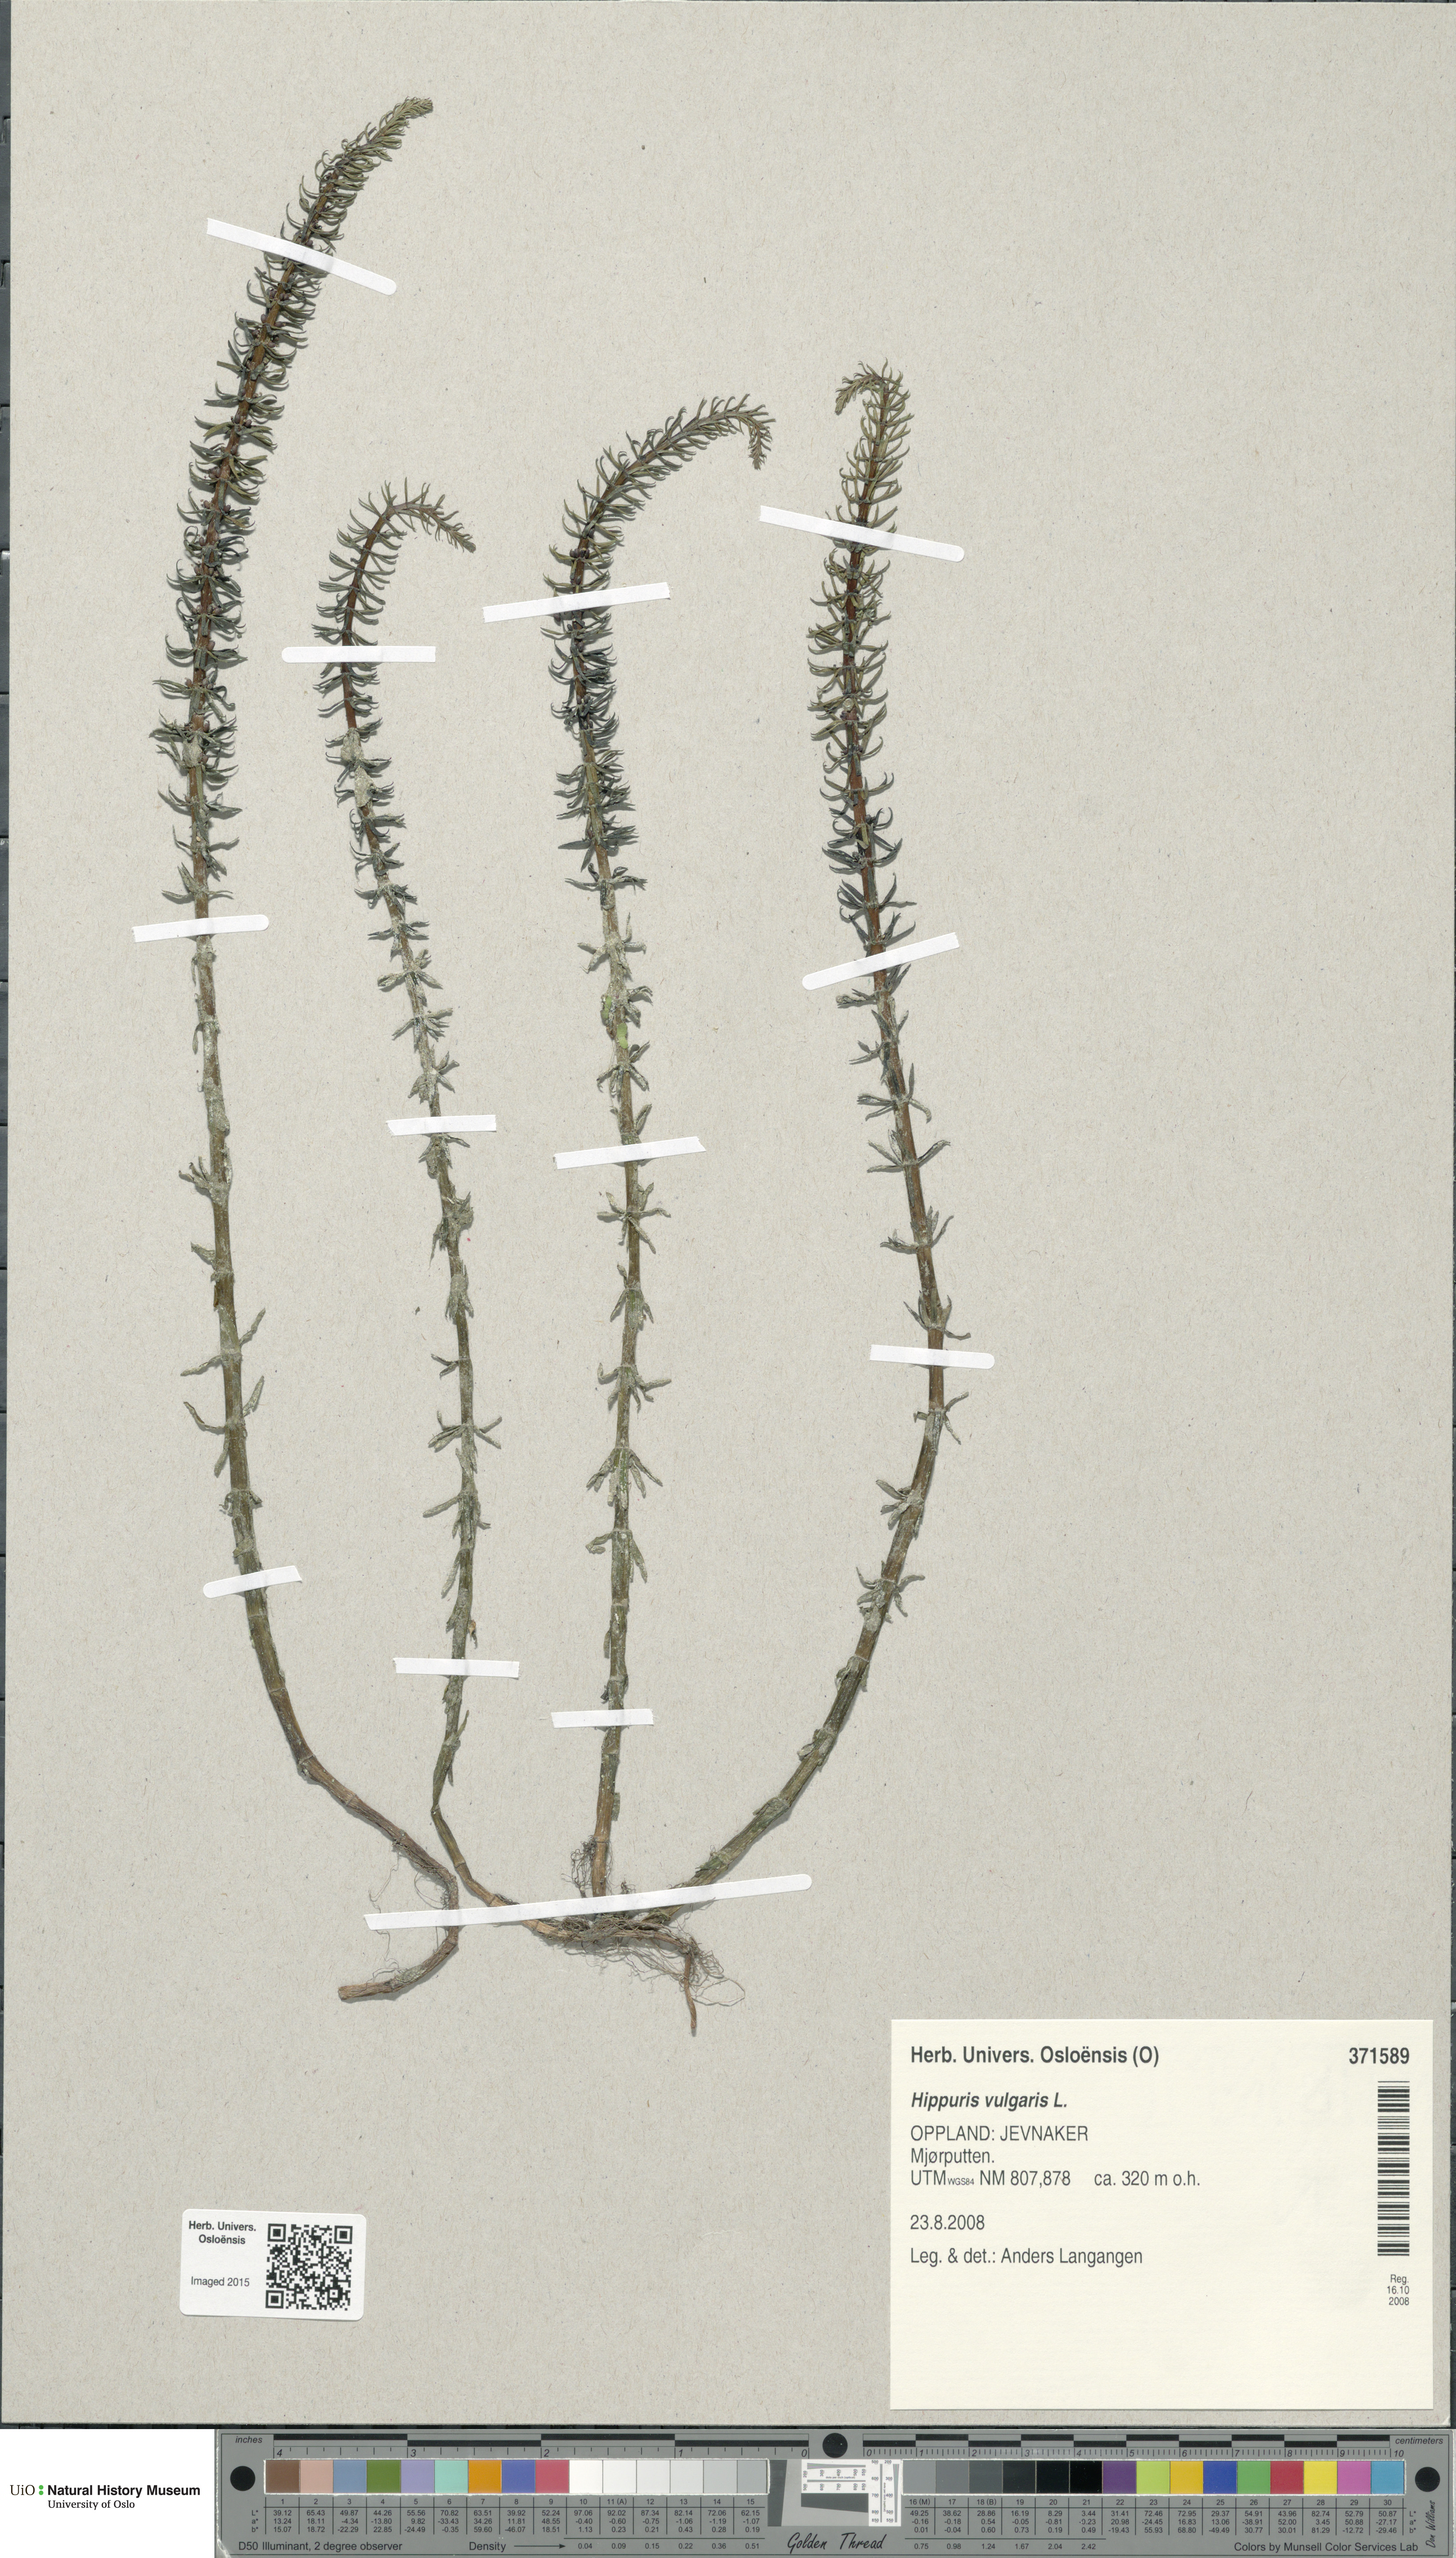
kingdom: Plantae
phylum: Tracheophyta
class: Magnoliopsida
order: Lamiales
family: Plantaginaceae
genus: Hippuris
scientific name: Hippuris vulgaris
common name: Mare's-tail
